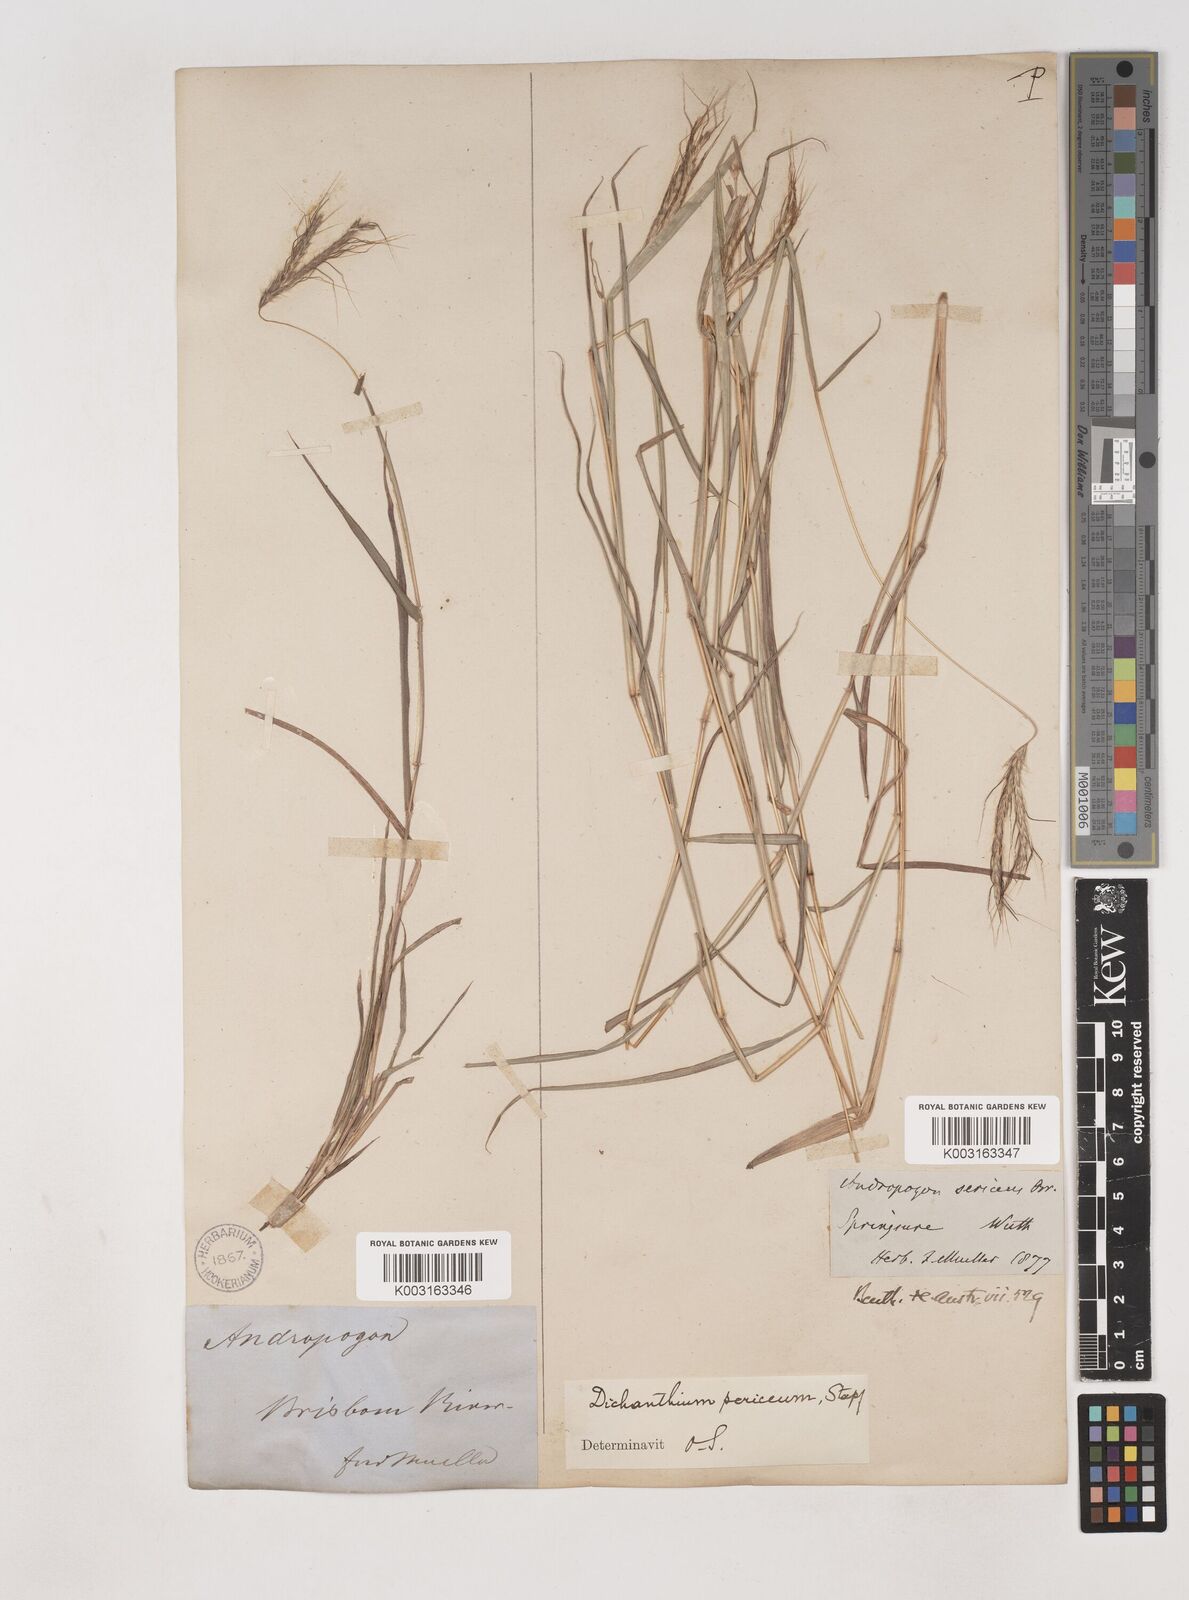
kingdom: Plantae
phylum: Tracheophyta
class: Liliopsida
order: Poales
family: Poaceae
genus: Dichanthium
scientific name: Dichanthium sericeum
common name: Silky bluestem
